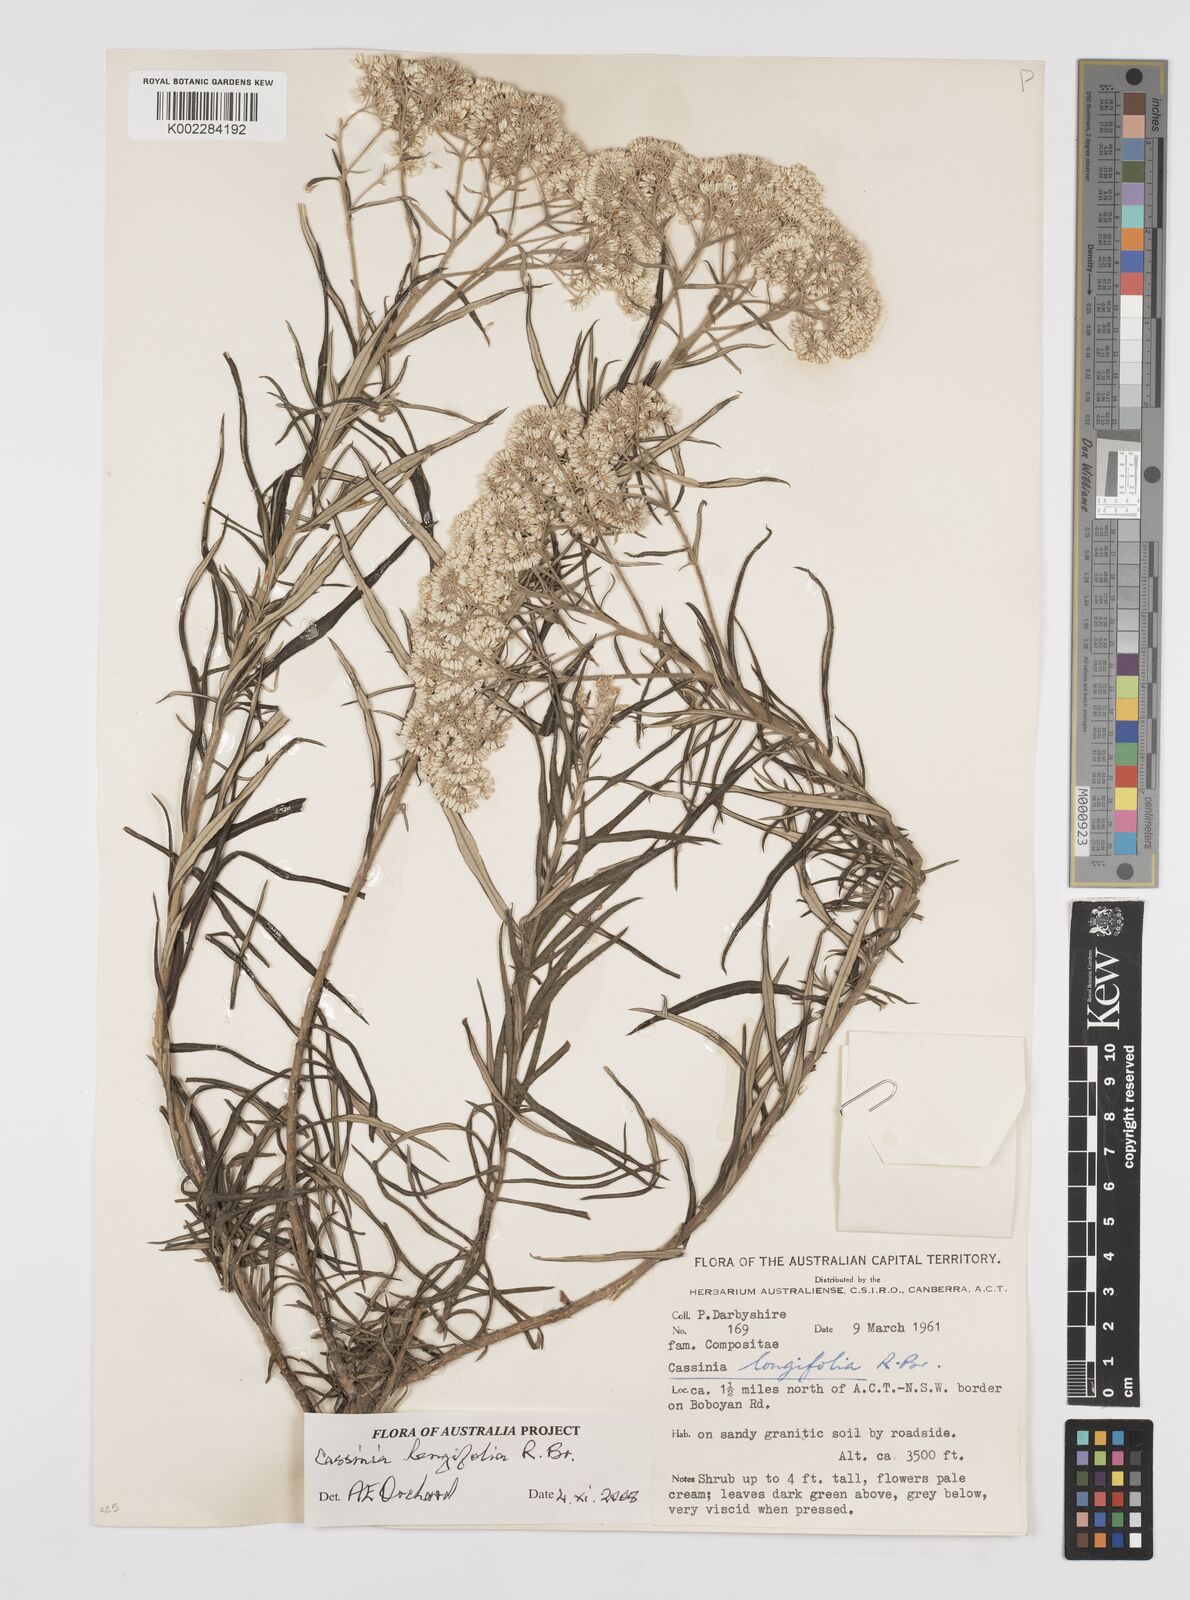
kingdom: Plantae
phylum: Tracheophyta
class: Magnoliopsida
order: Asterales
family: Asteraceae
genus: Cassinia
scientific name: Cassinia longifolia
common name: Longleaf-dogwood
